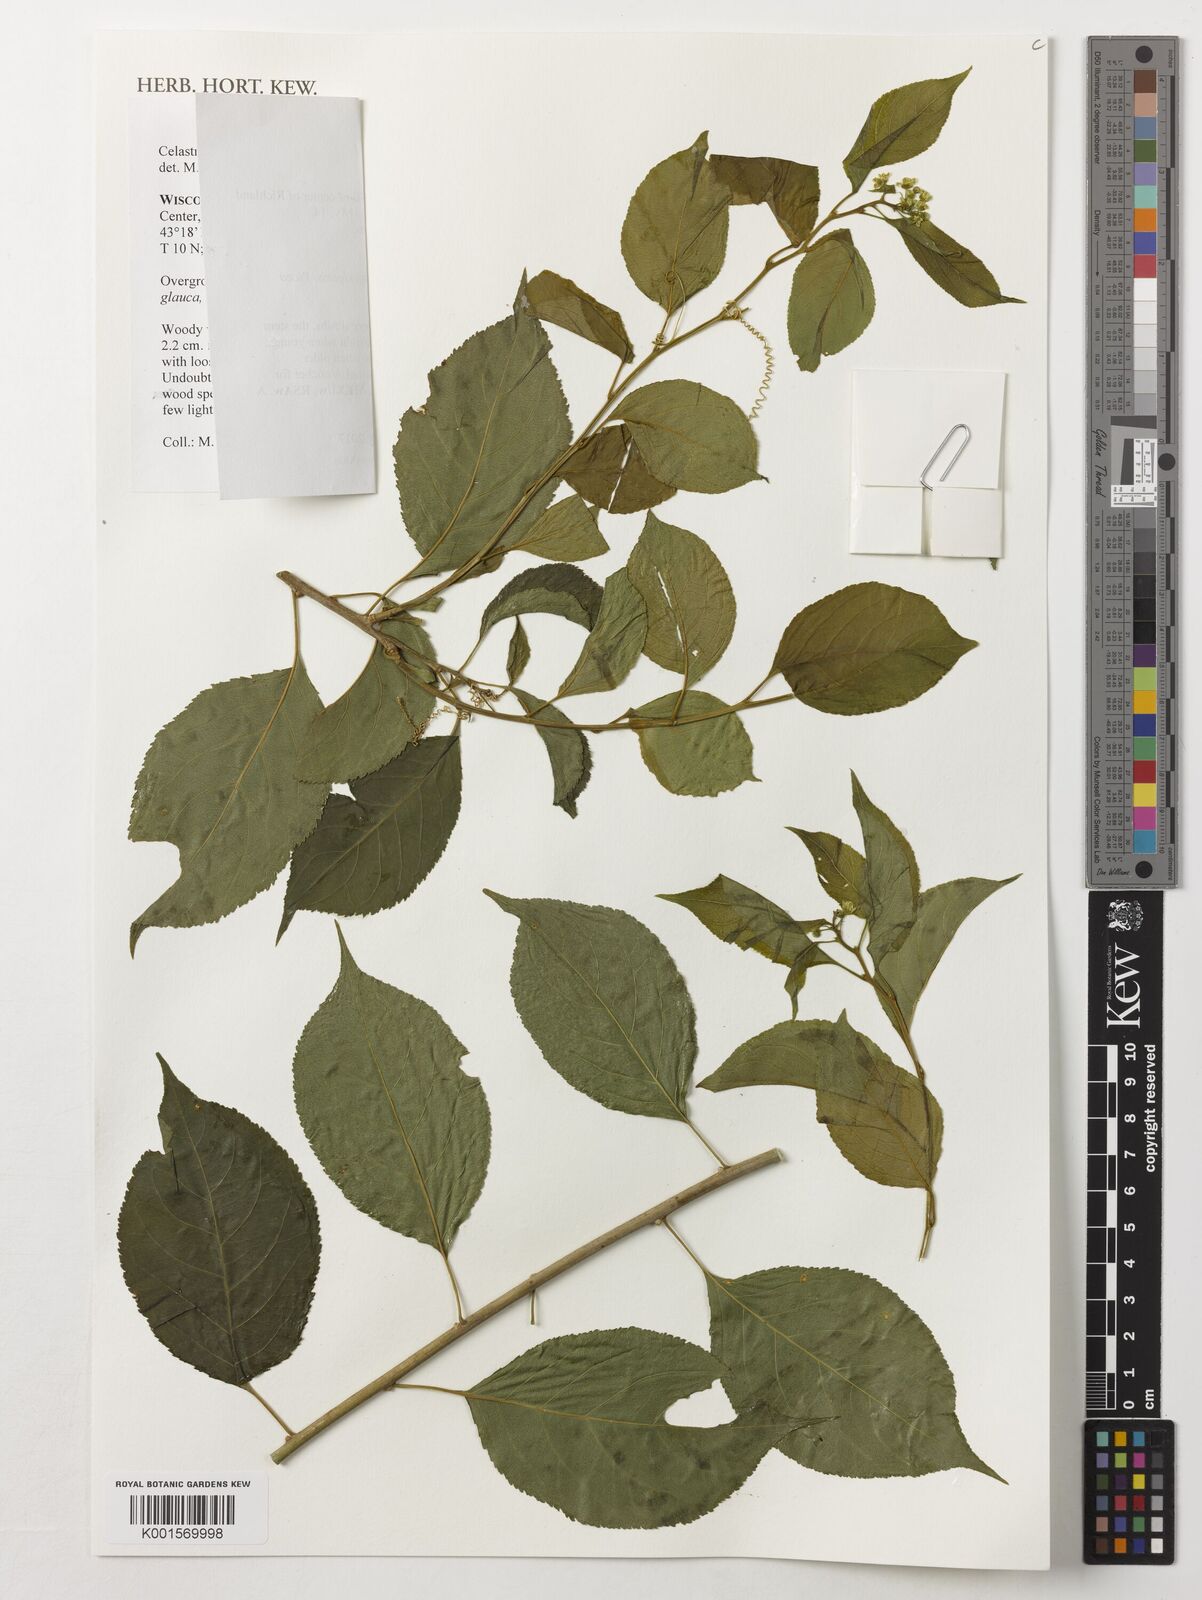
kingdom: Plantae
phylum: Tracheophyta
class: Magnoliopsida
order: Celastrales
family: Celastraceae
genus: Celastrus
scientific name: Celastrus scandens
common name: American bittersweet
